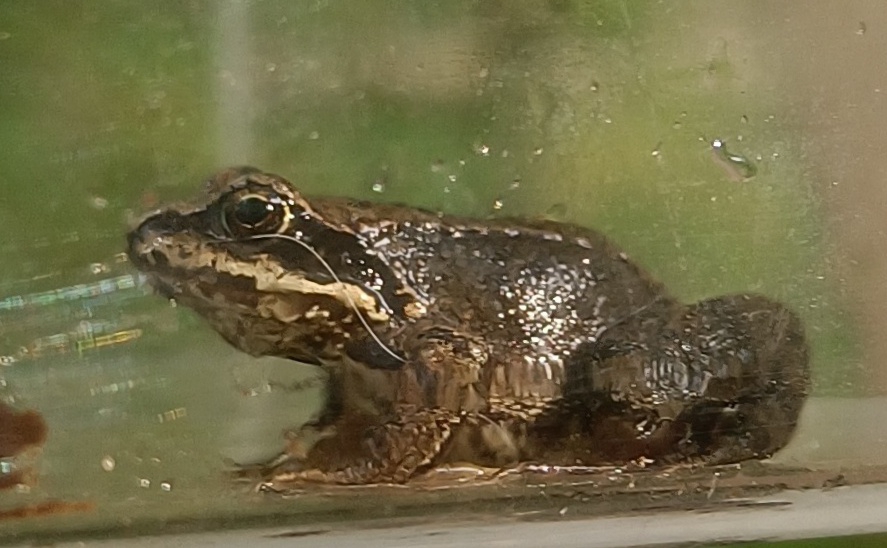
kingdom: Animalia
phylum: Chordata
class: Amphibia
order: Anura
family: Ranidae
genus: Rana
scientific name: Rana temporaria
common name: Butsnudet frø
